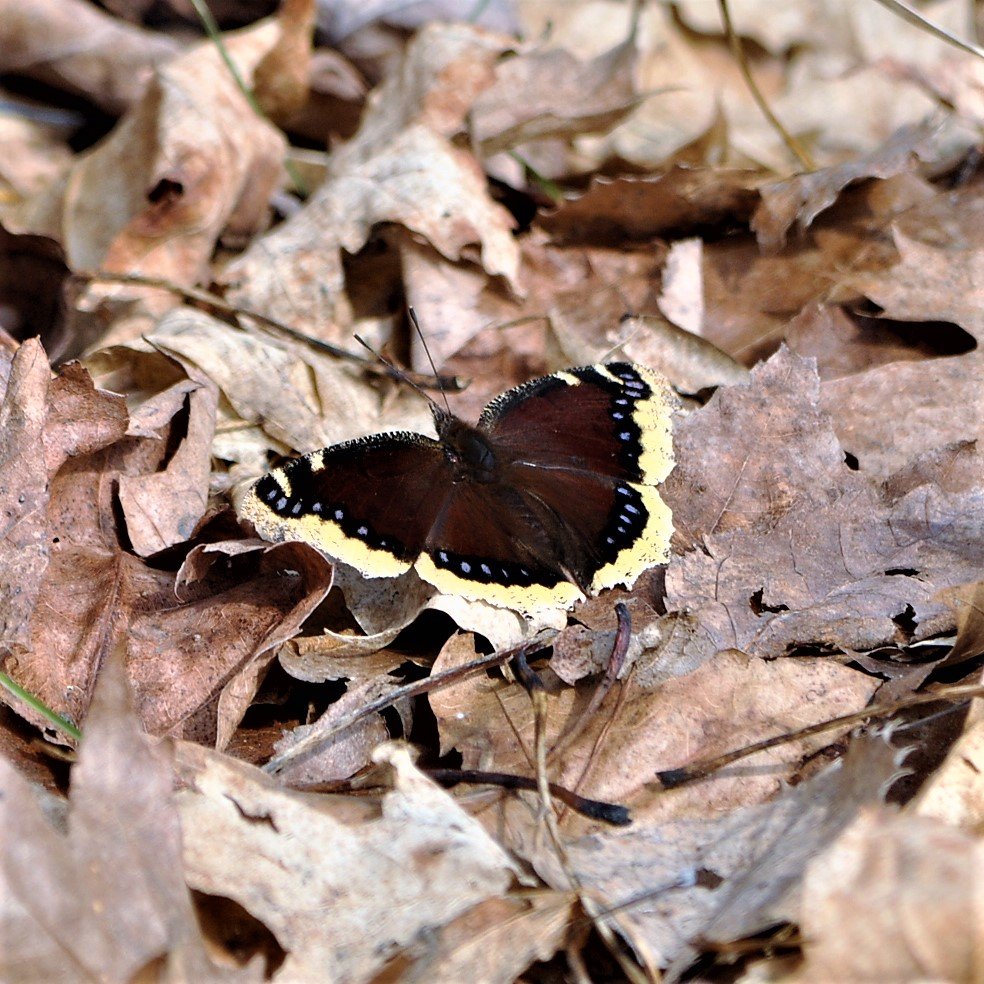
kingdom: Animalia
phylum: Arthropoda
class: Insecta
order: Lepidoptera
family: Nymphalidae
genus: Nymphalis
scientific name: Nymphalis antiopa
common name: Mourning Cloak
